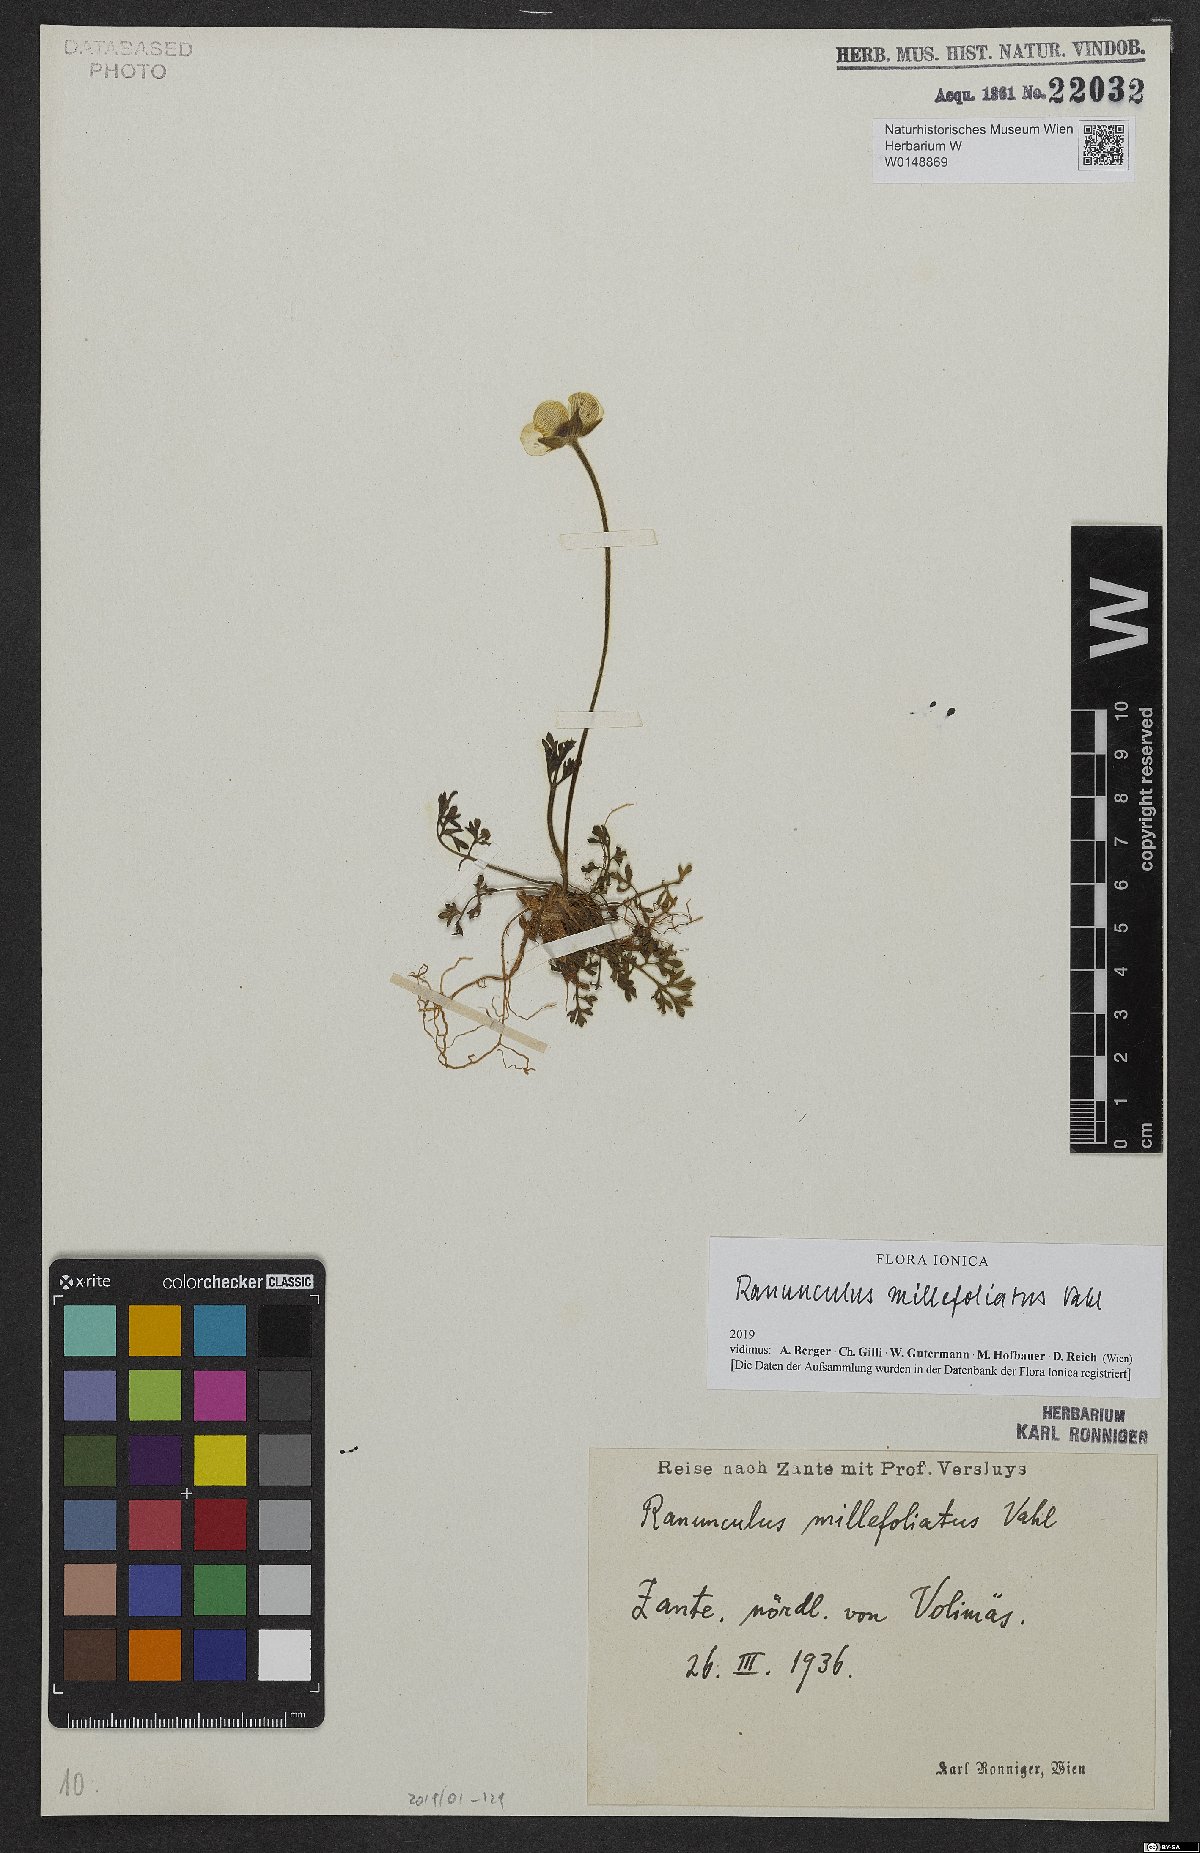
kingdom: Plantae
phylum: Tracheophyta
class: Magnoliopsida
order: Ranunculales
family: Ranunculaceae
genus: Ranunculus
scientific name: Ranunculus millefoliatus
